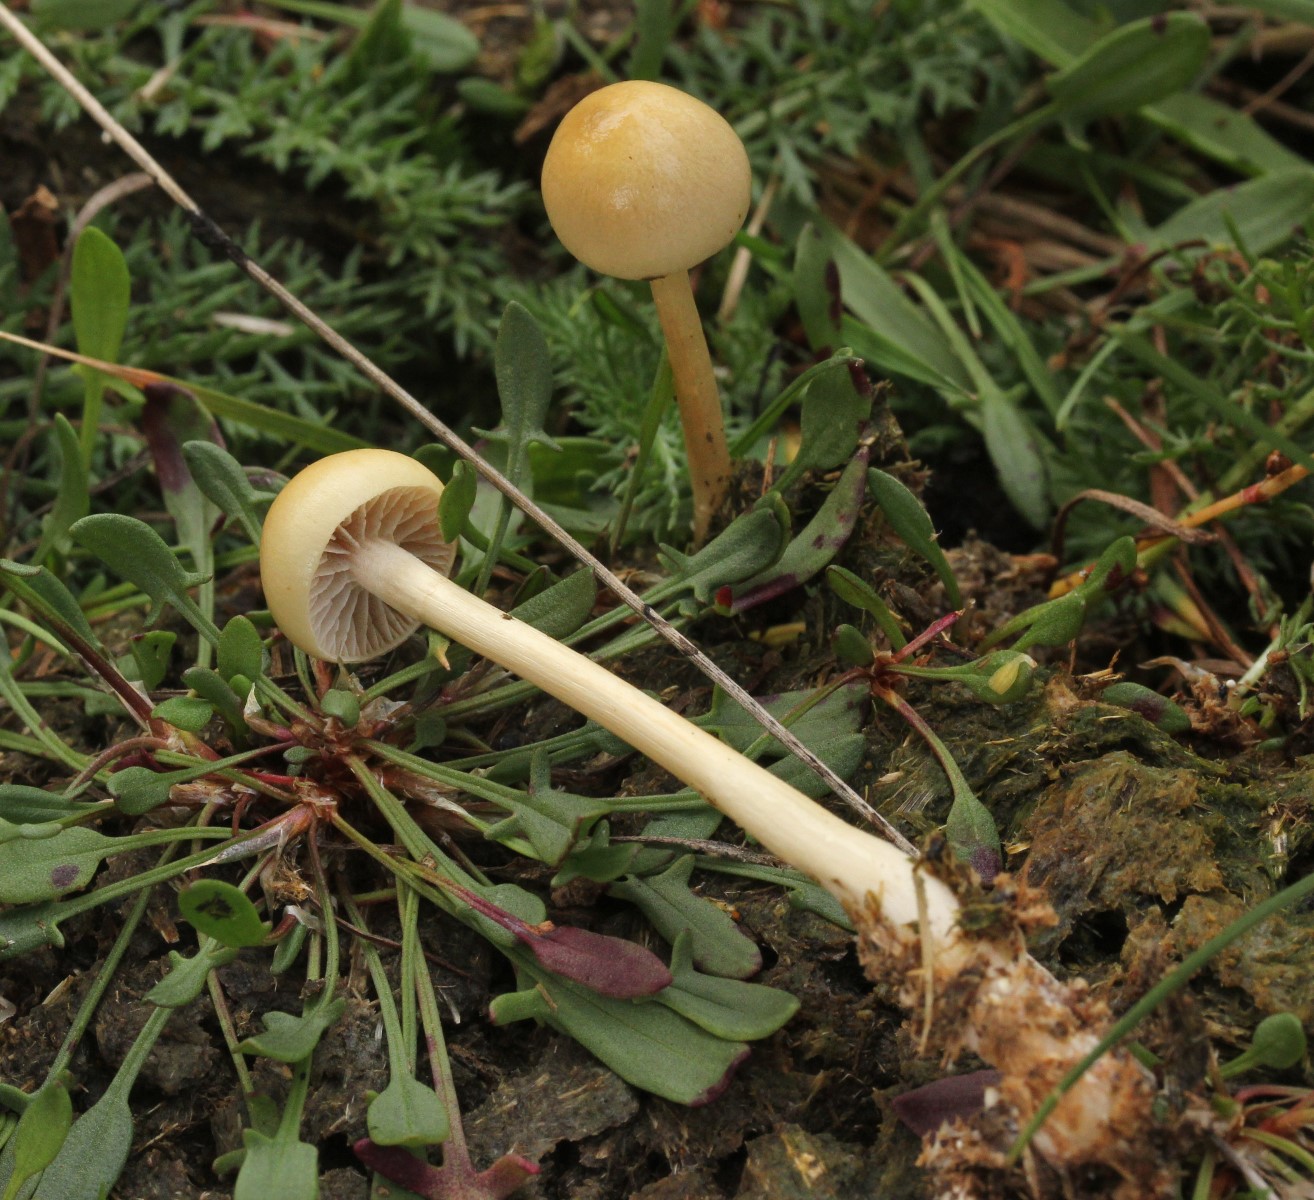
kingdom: Fungi
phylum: Basidiomycota
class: Agaricomycetes
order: Agaricales
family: Strophariaceae
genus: Protostropharia
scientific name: Protostropharia
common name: bredblad
